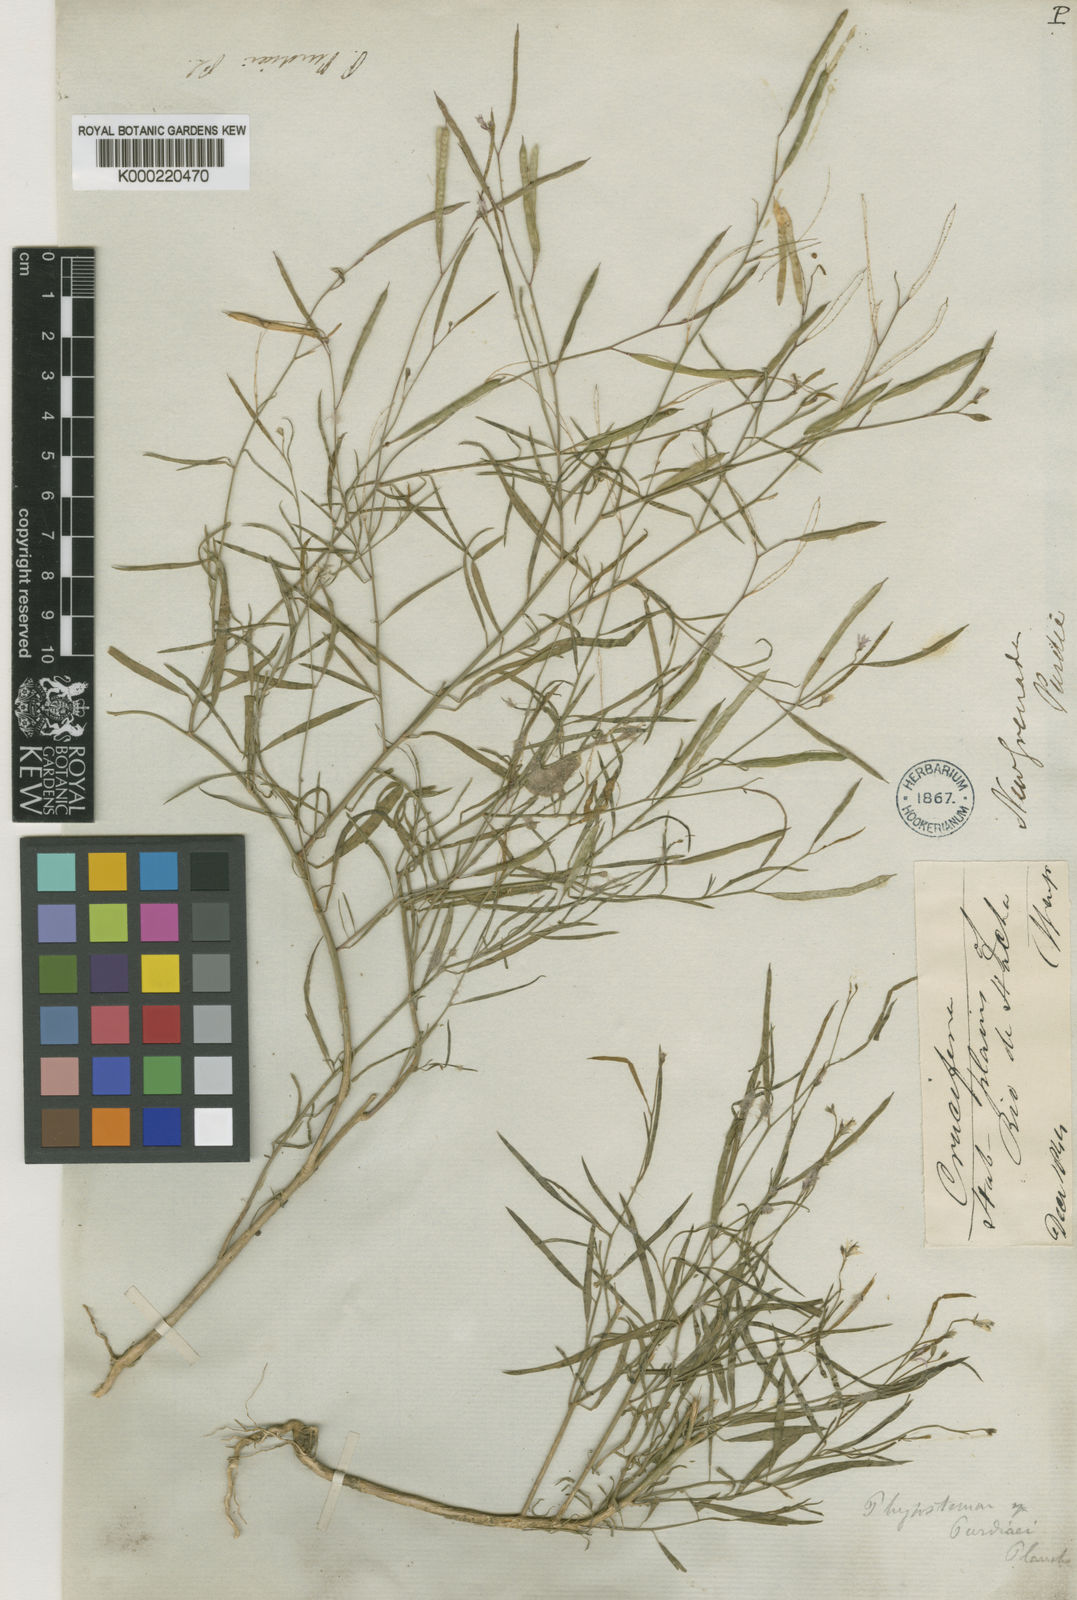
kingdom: Plantae
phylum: Tracheophyta
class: Magnoliopsida
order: Brassicales
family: Cleomaceae
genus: Cleome
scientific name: Cleome
